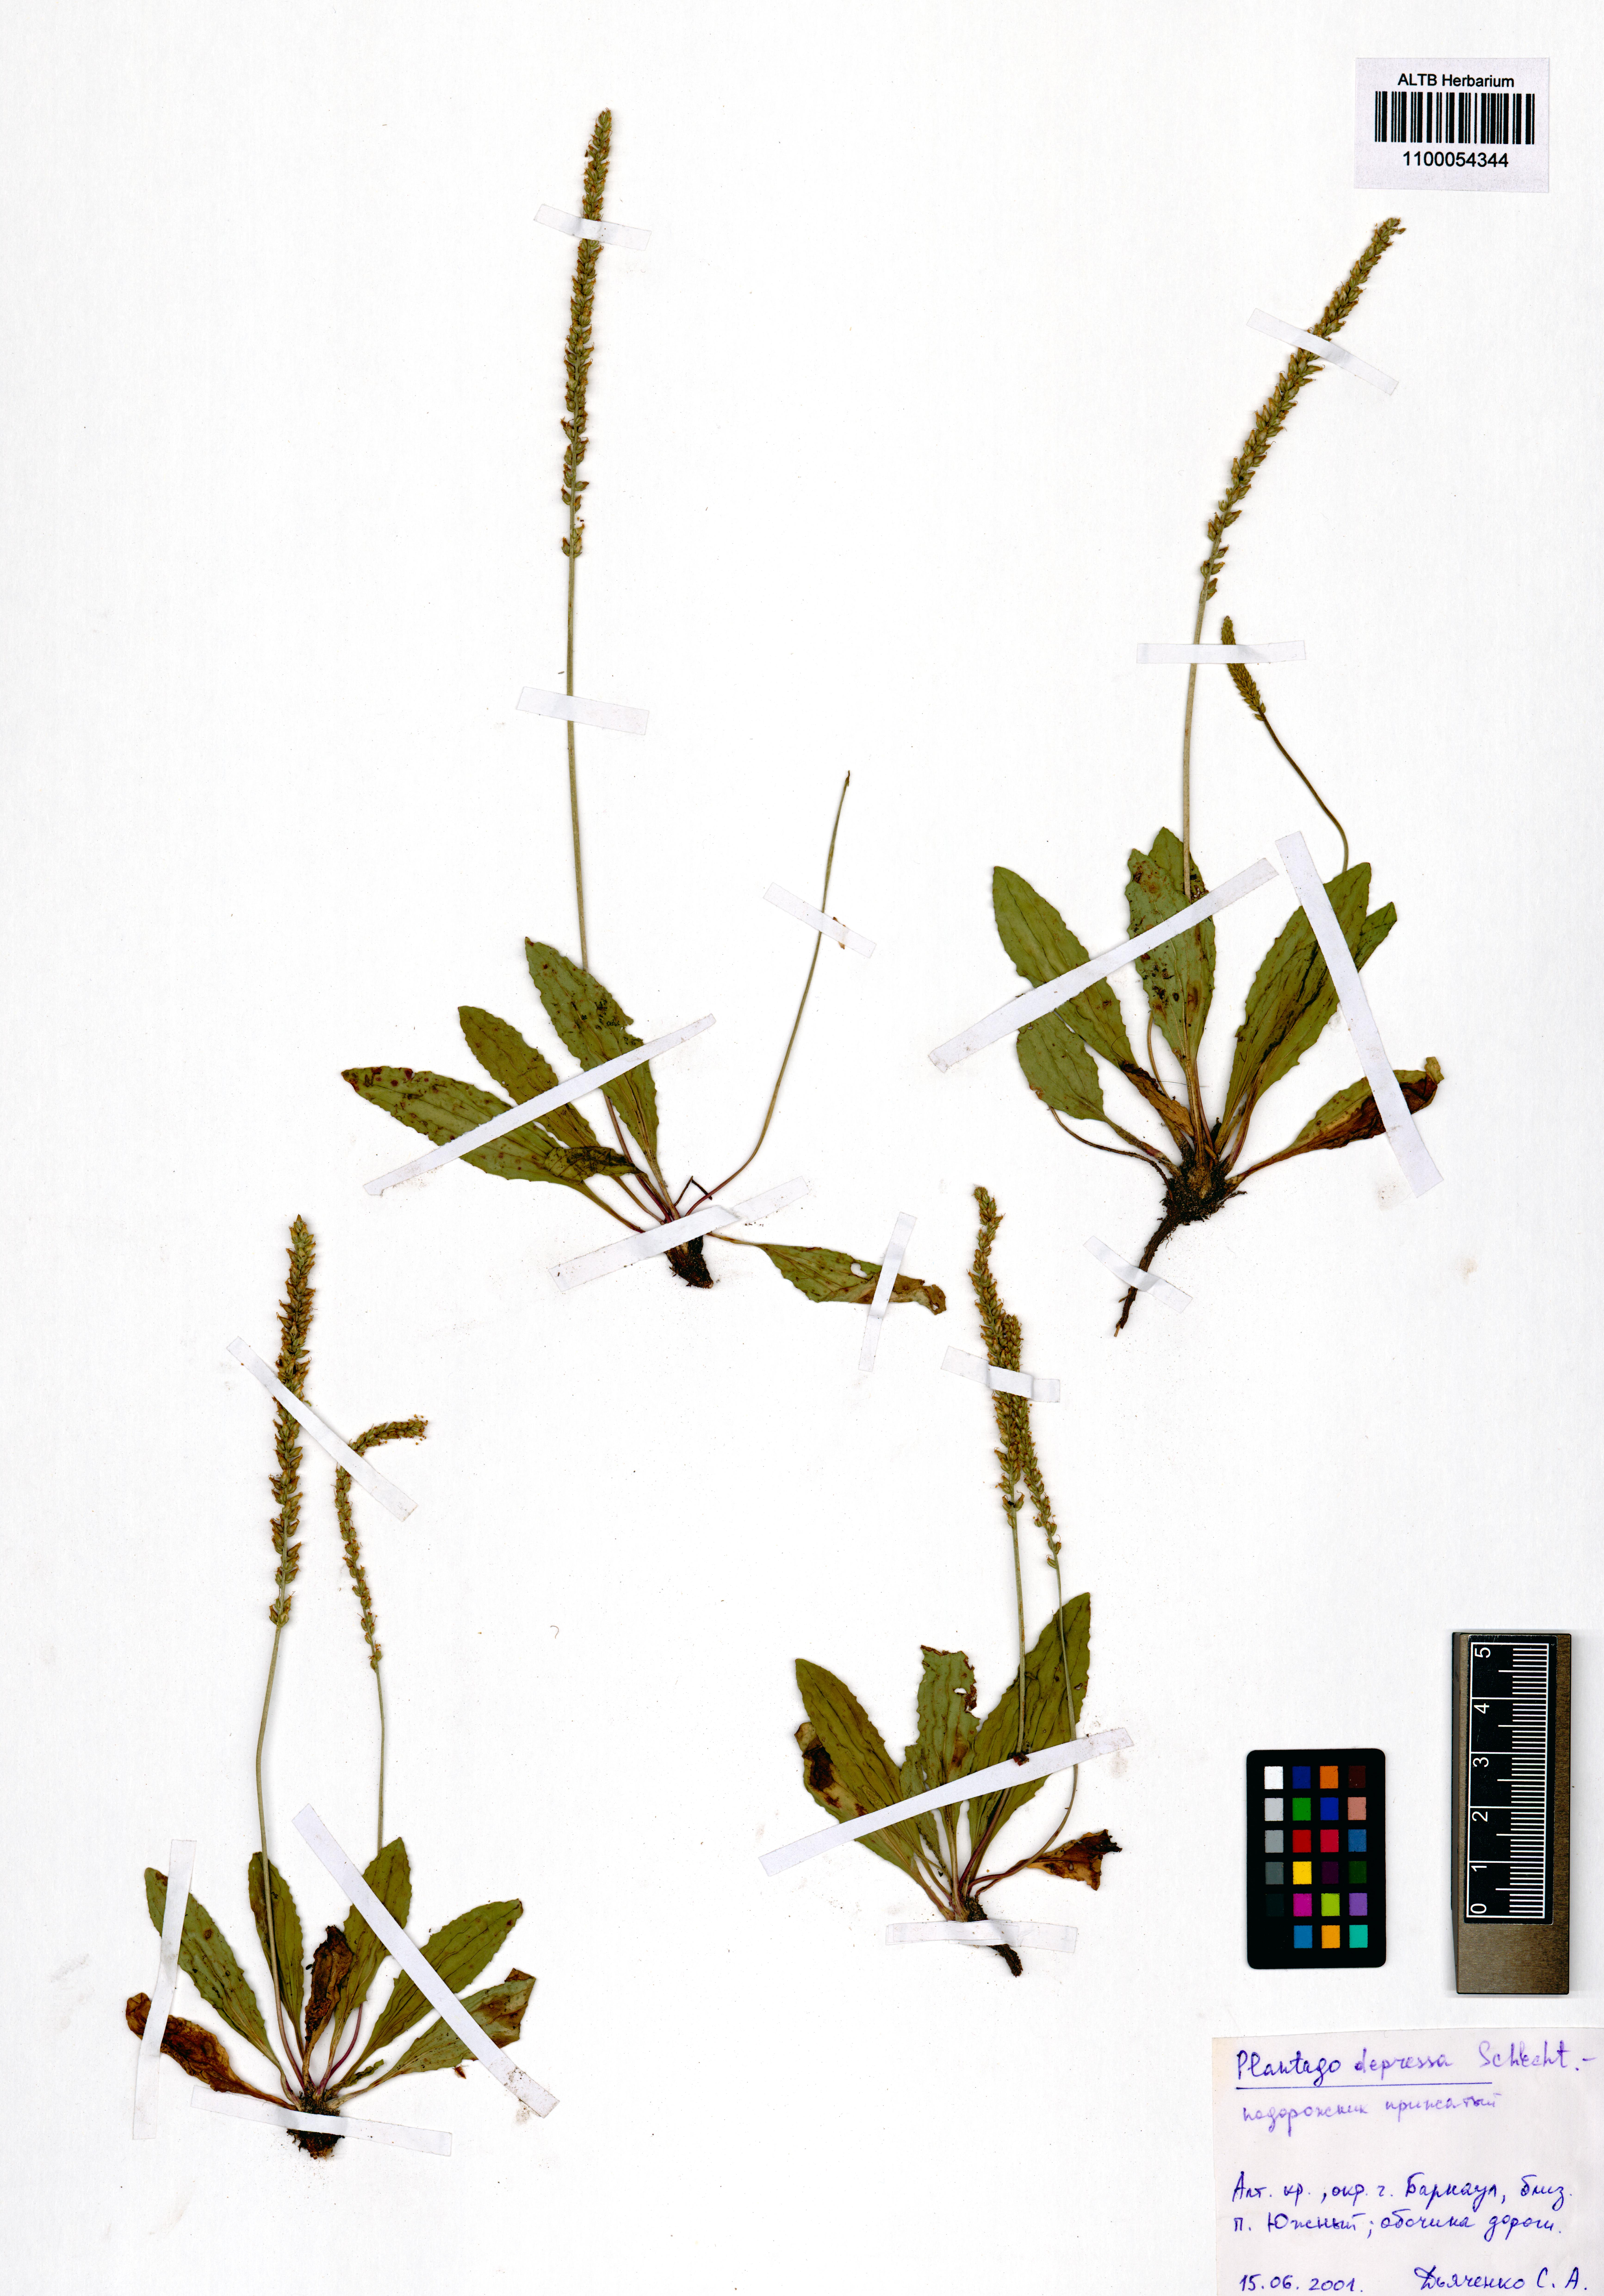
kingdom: Plantae
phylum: Tracheophyta
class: Magnoliopsida
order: Lamiales
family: Plantaginaceae
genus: Plantago
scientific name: Plantago depressa
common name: Depressed plantain
